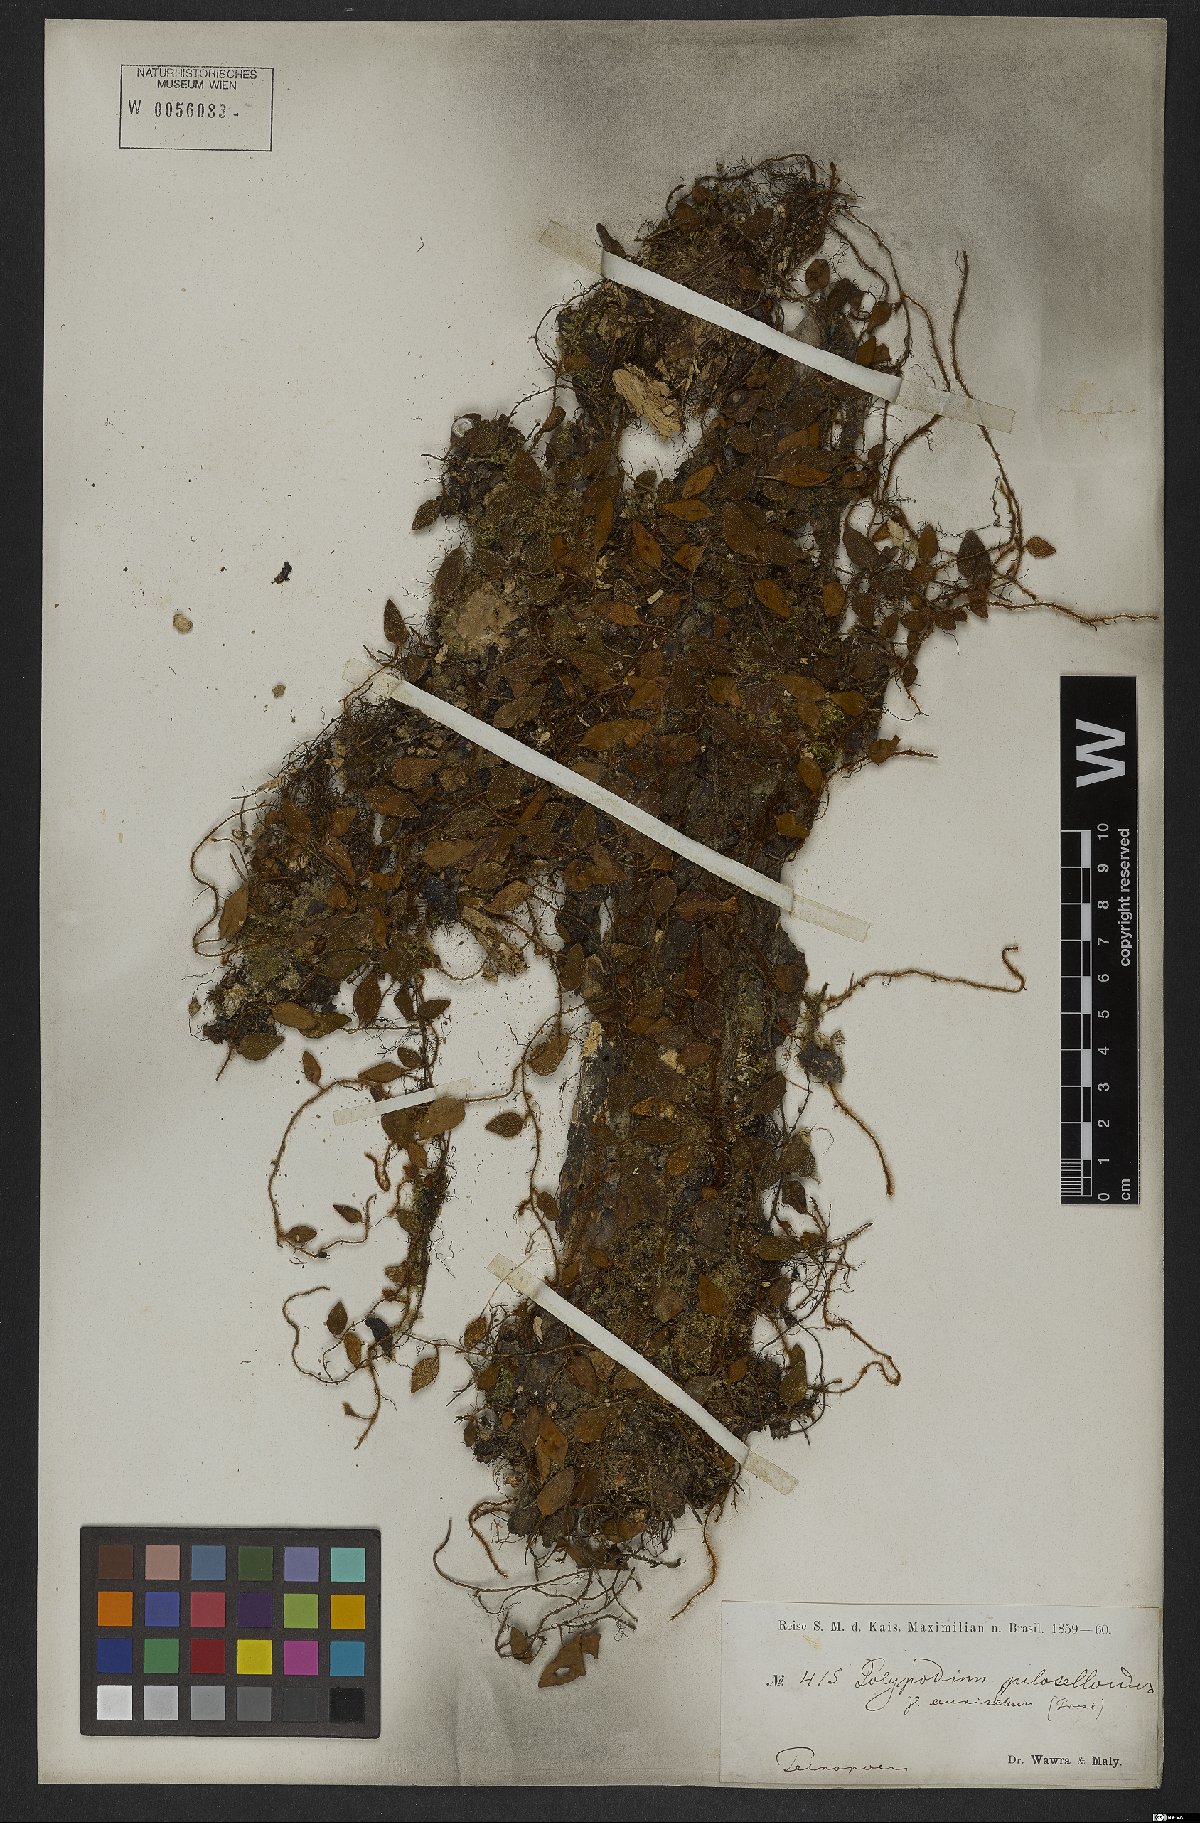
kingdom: Plantae
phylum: Tracheophyta
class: Polypodiopsida
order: Polypodiales
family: Polypodiaceae
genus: Microgramma
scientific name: Microgramma tecta
